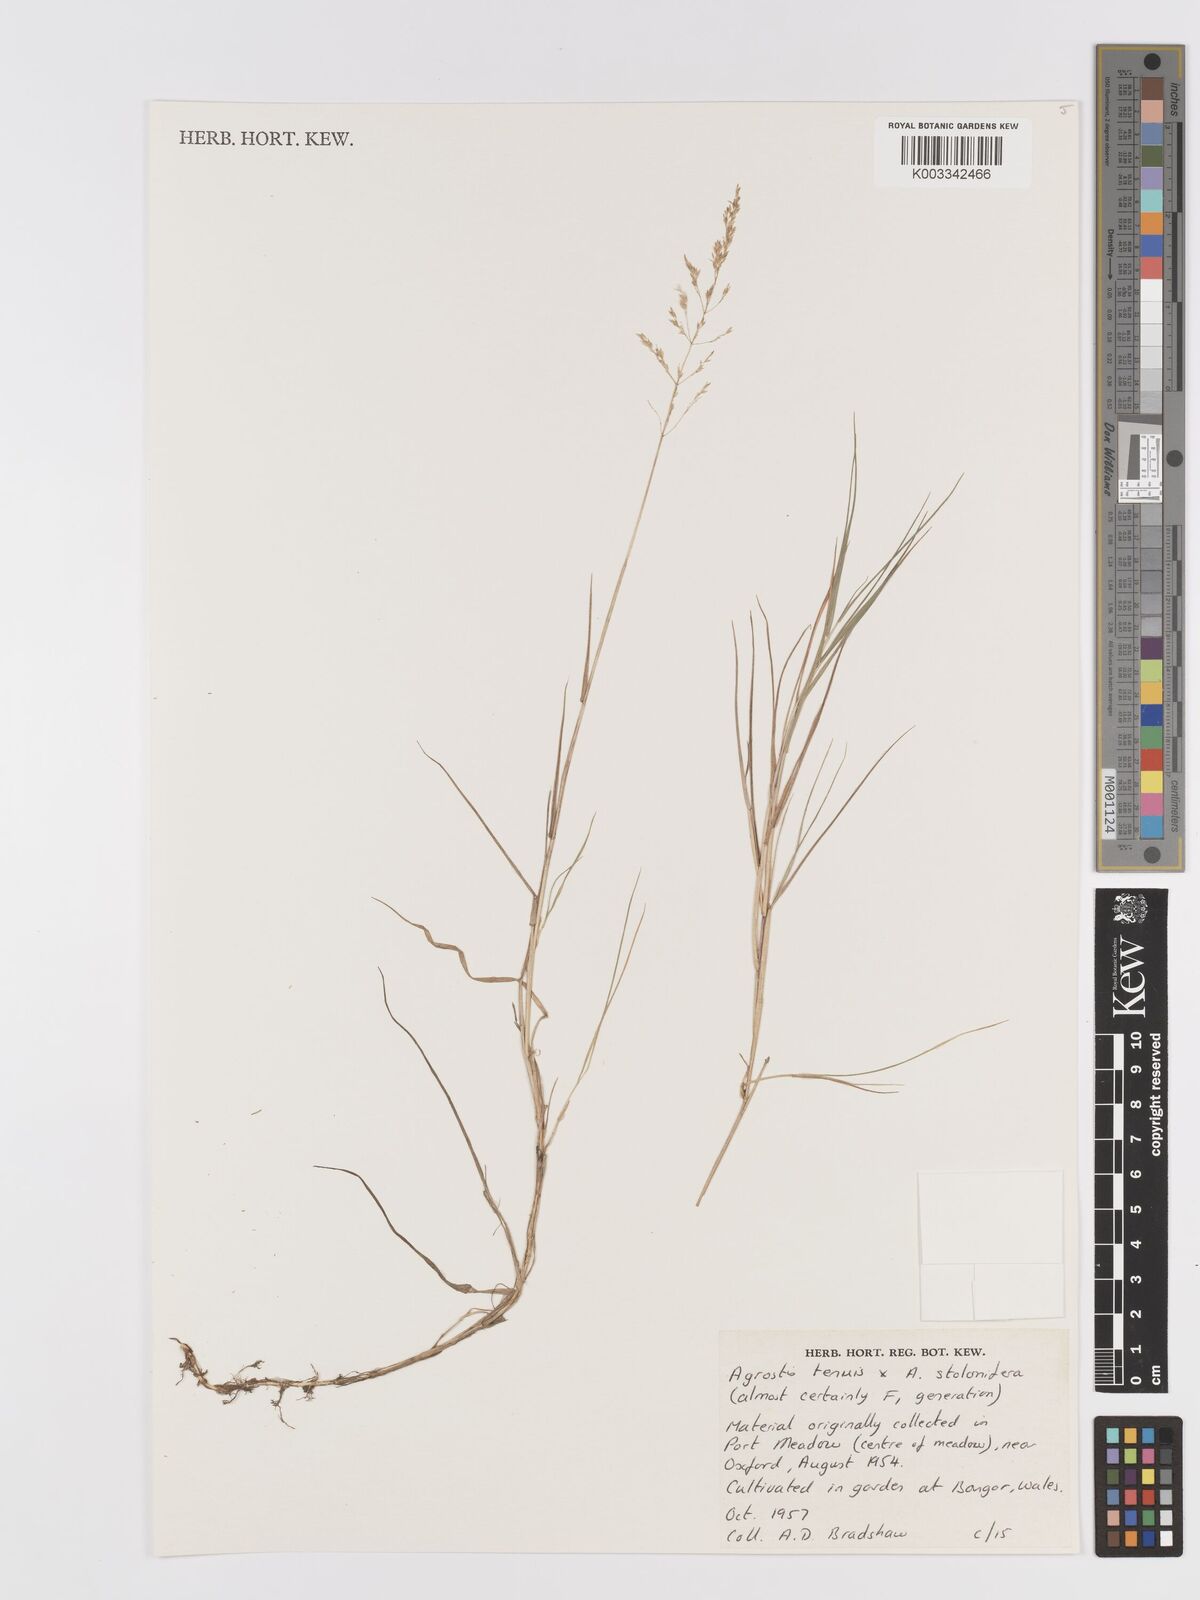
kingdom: Plantae
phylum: Tracheophyta
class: Liliopsida
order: Poales
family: Poaceae
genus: Agrostis
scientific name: Agrostis capillaris
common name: Colonial bentgrass
